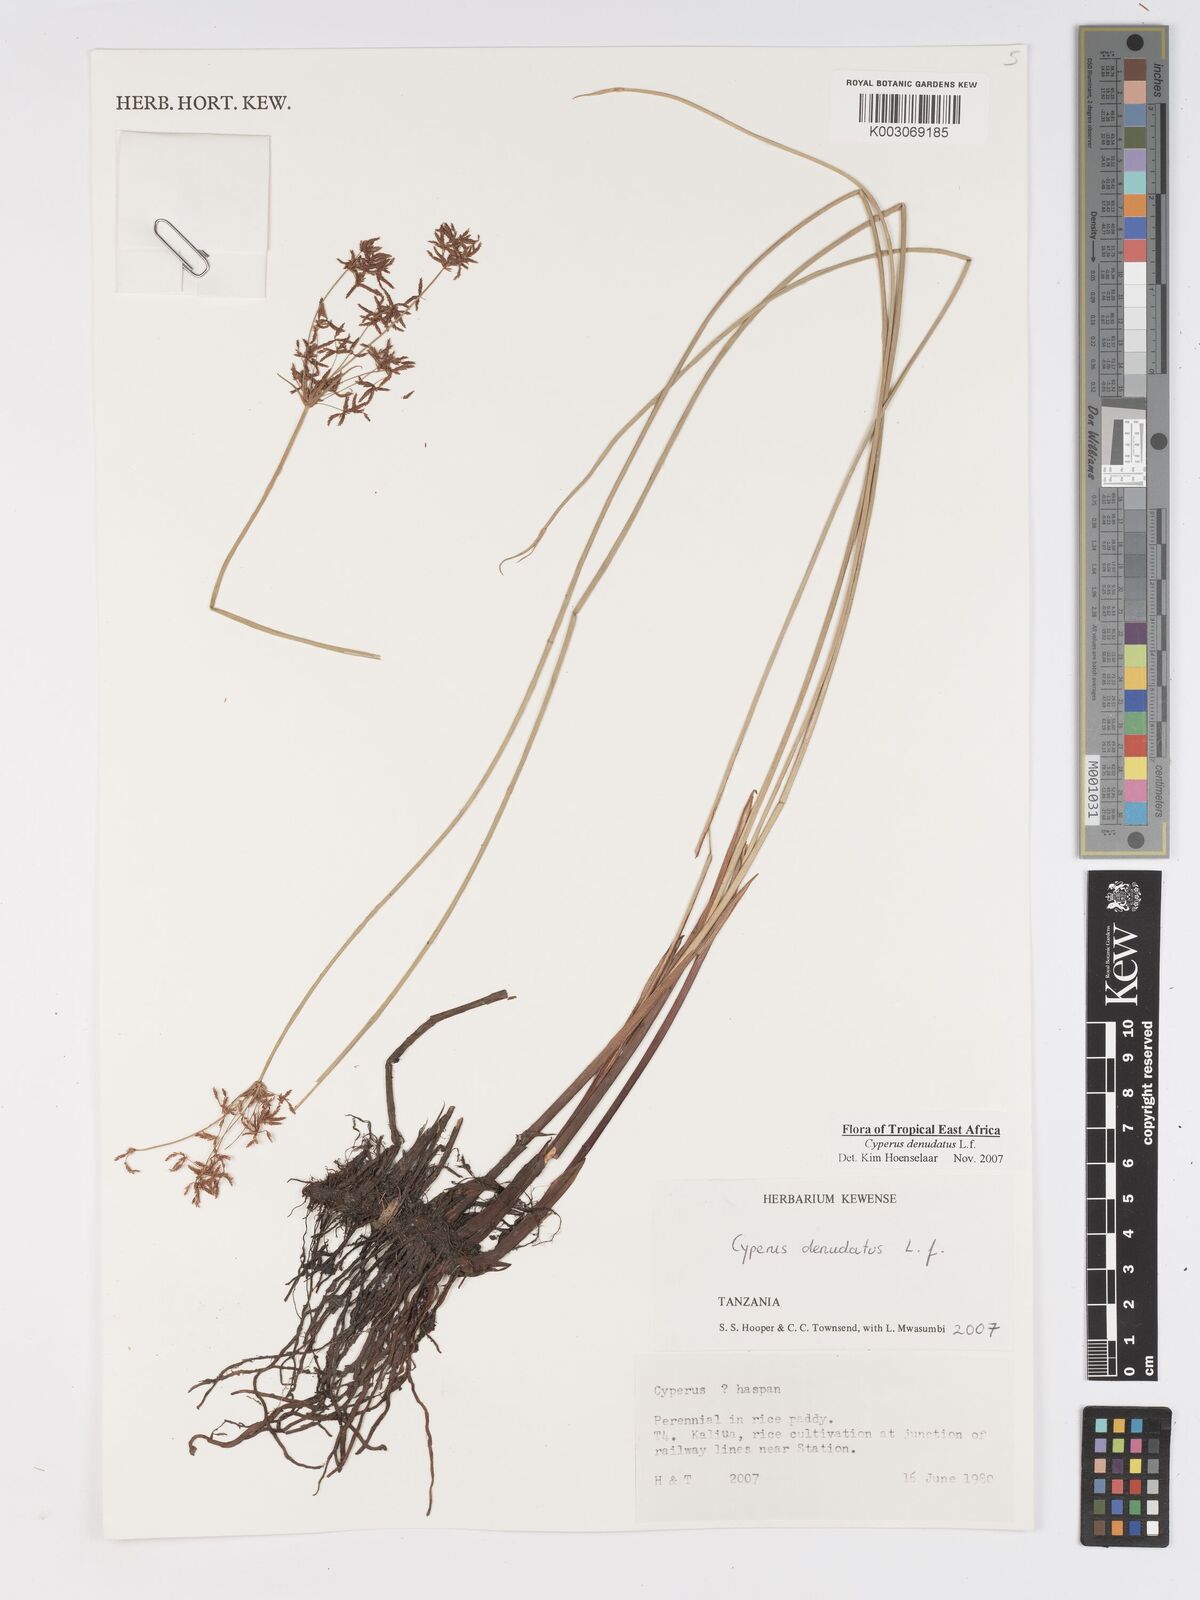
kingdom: Plantae
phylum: Tracheophyta
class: Liliopsida
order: Poales
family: Cyperaceae
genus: Cyperus
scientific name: Cyperus denudatus
